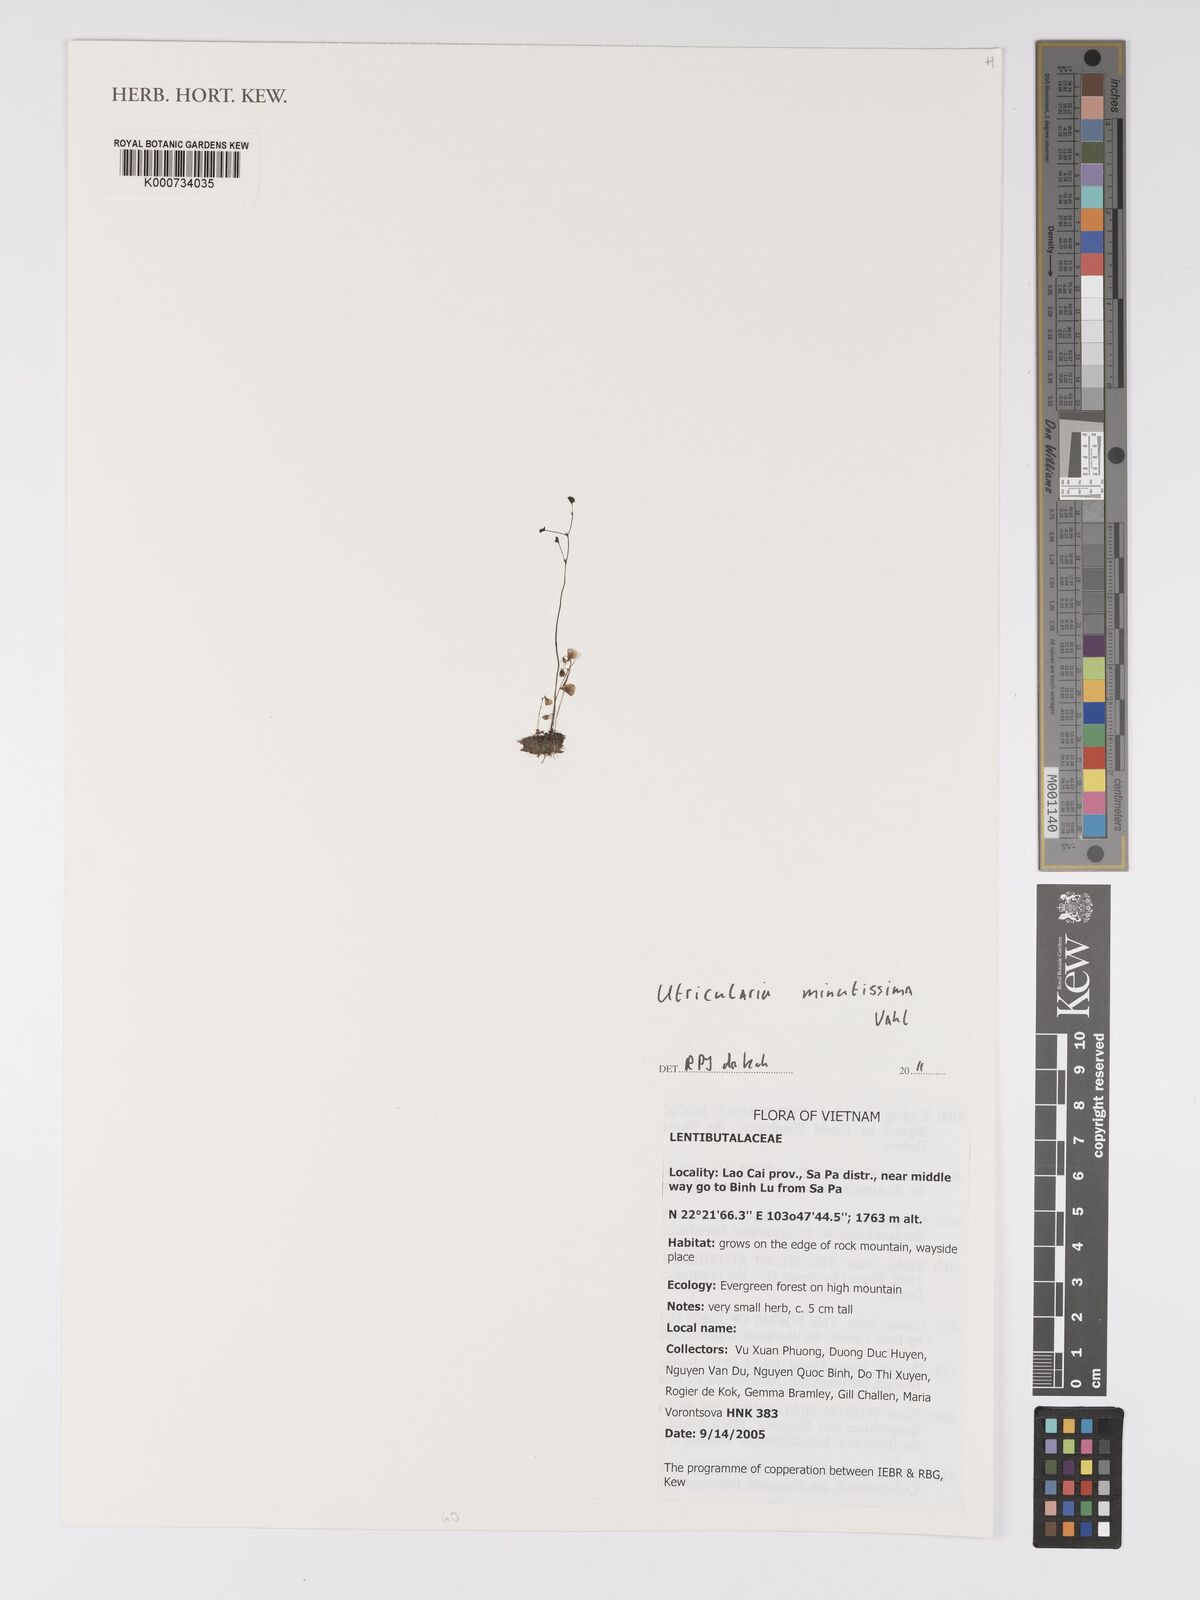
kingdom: Plantae
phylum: Tracheophyta
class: Magnoliopsida
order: Lamiales
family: Lentibulariaceae
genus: Utricularia
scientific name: Utricularia minutissima
